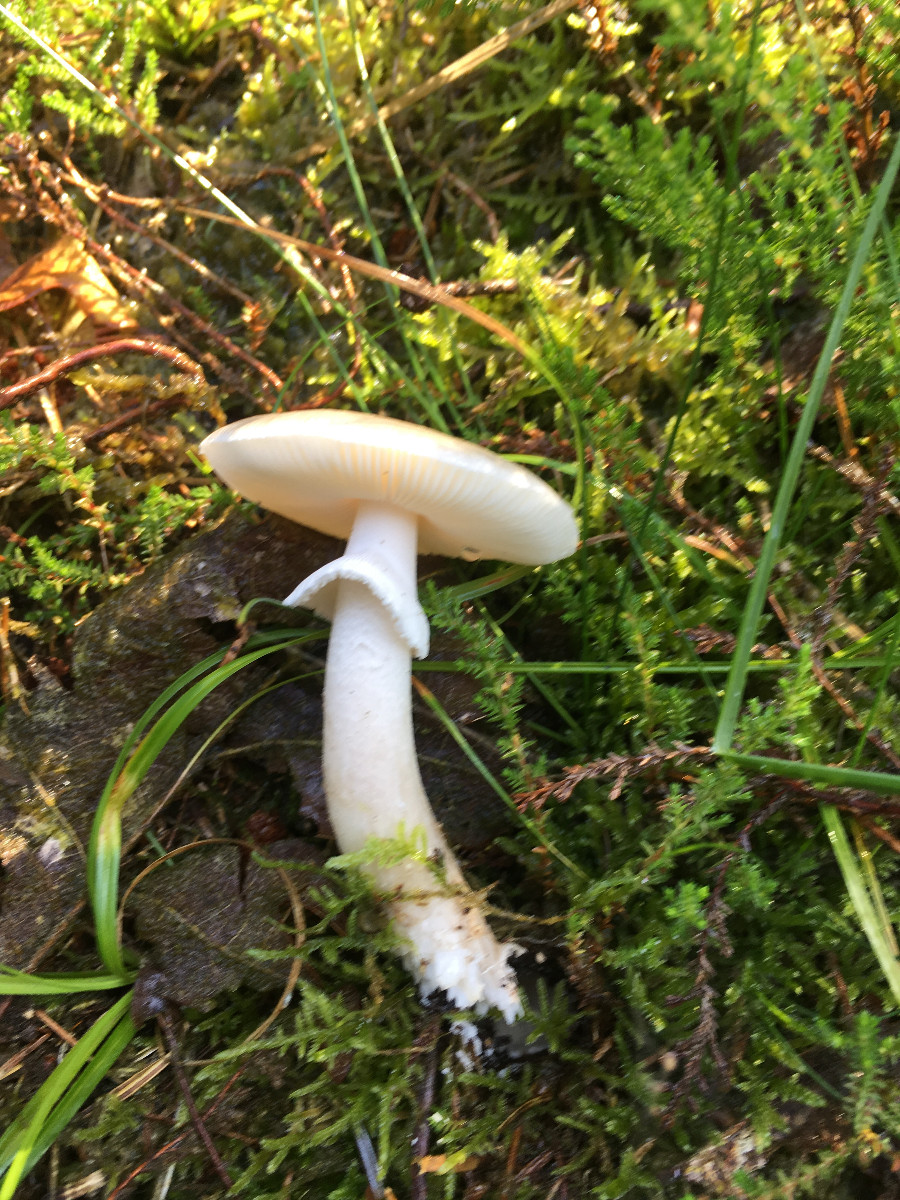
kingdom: Fungi
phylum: Basidiomycota
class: Agaricomycetes
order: Agaricales
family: Amanitaceae
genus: Amanita
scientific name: Amanita
